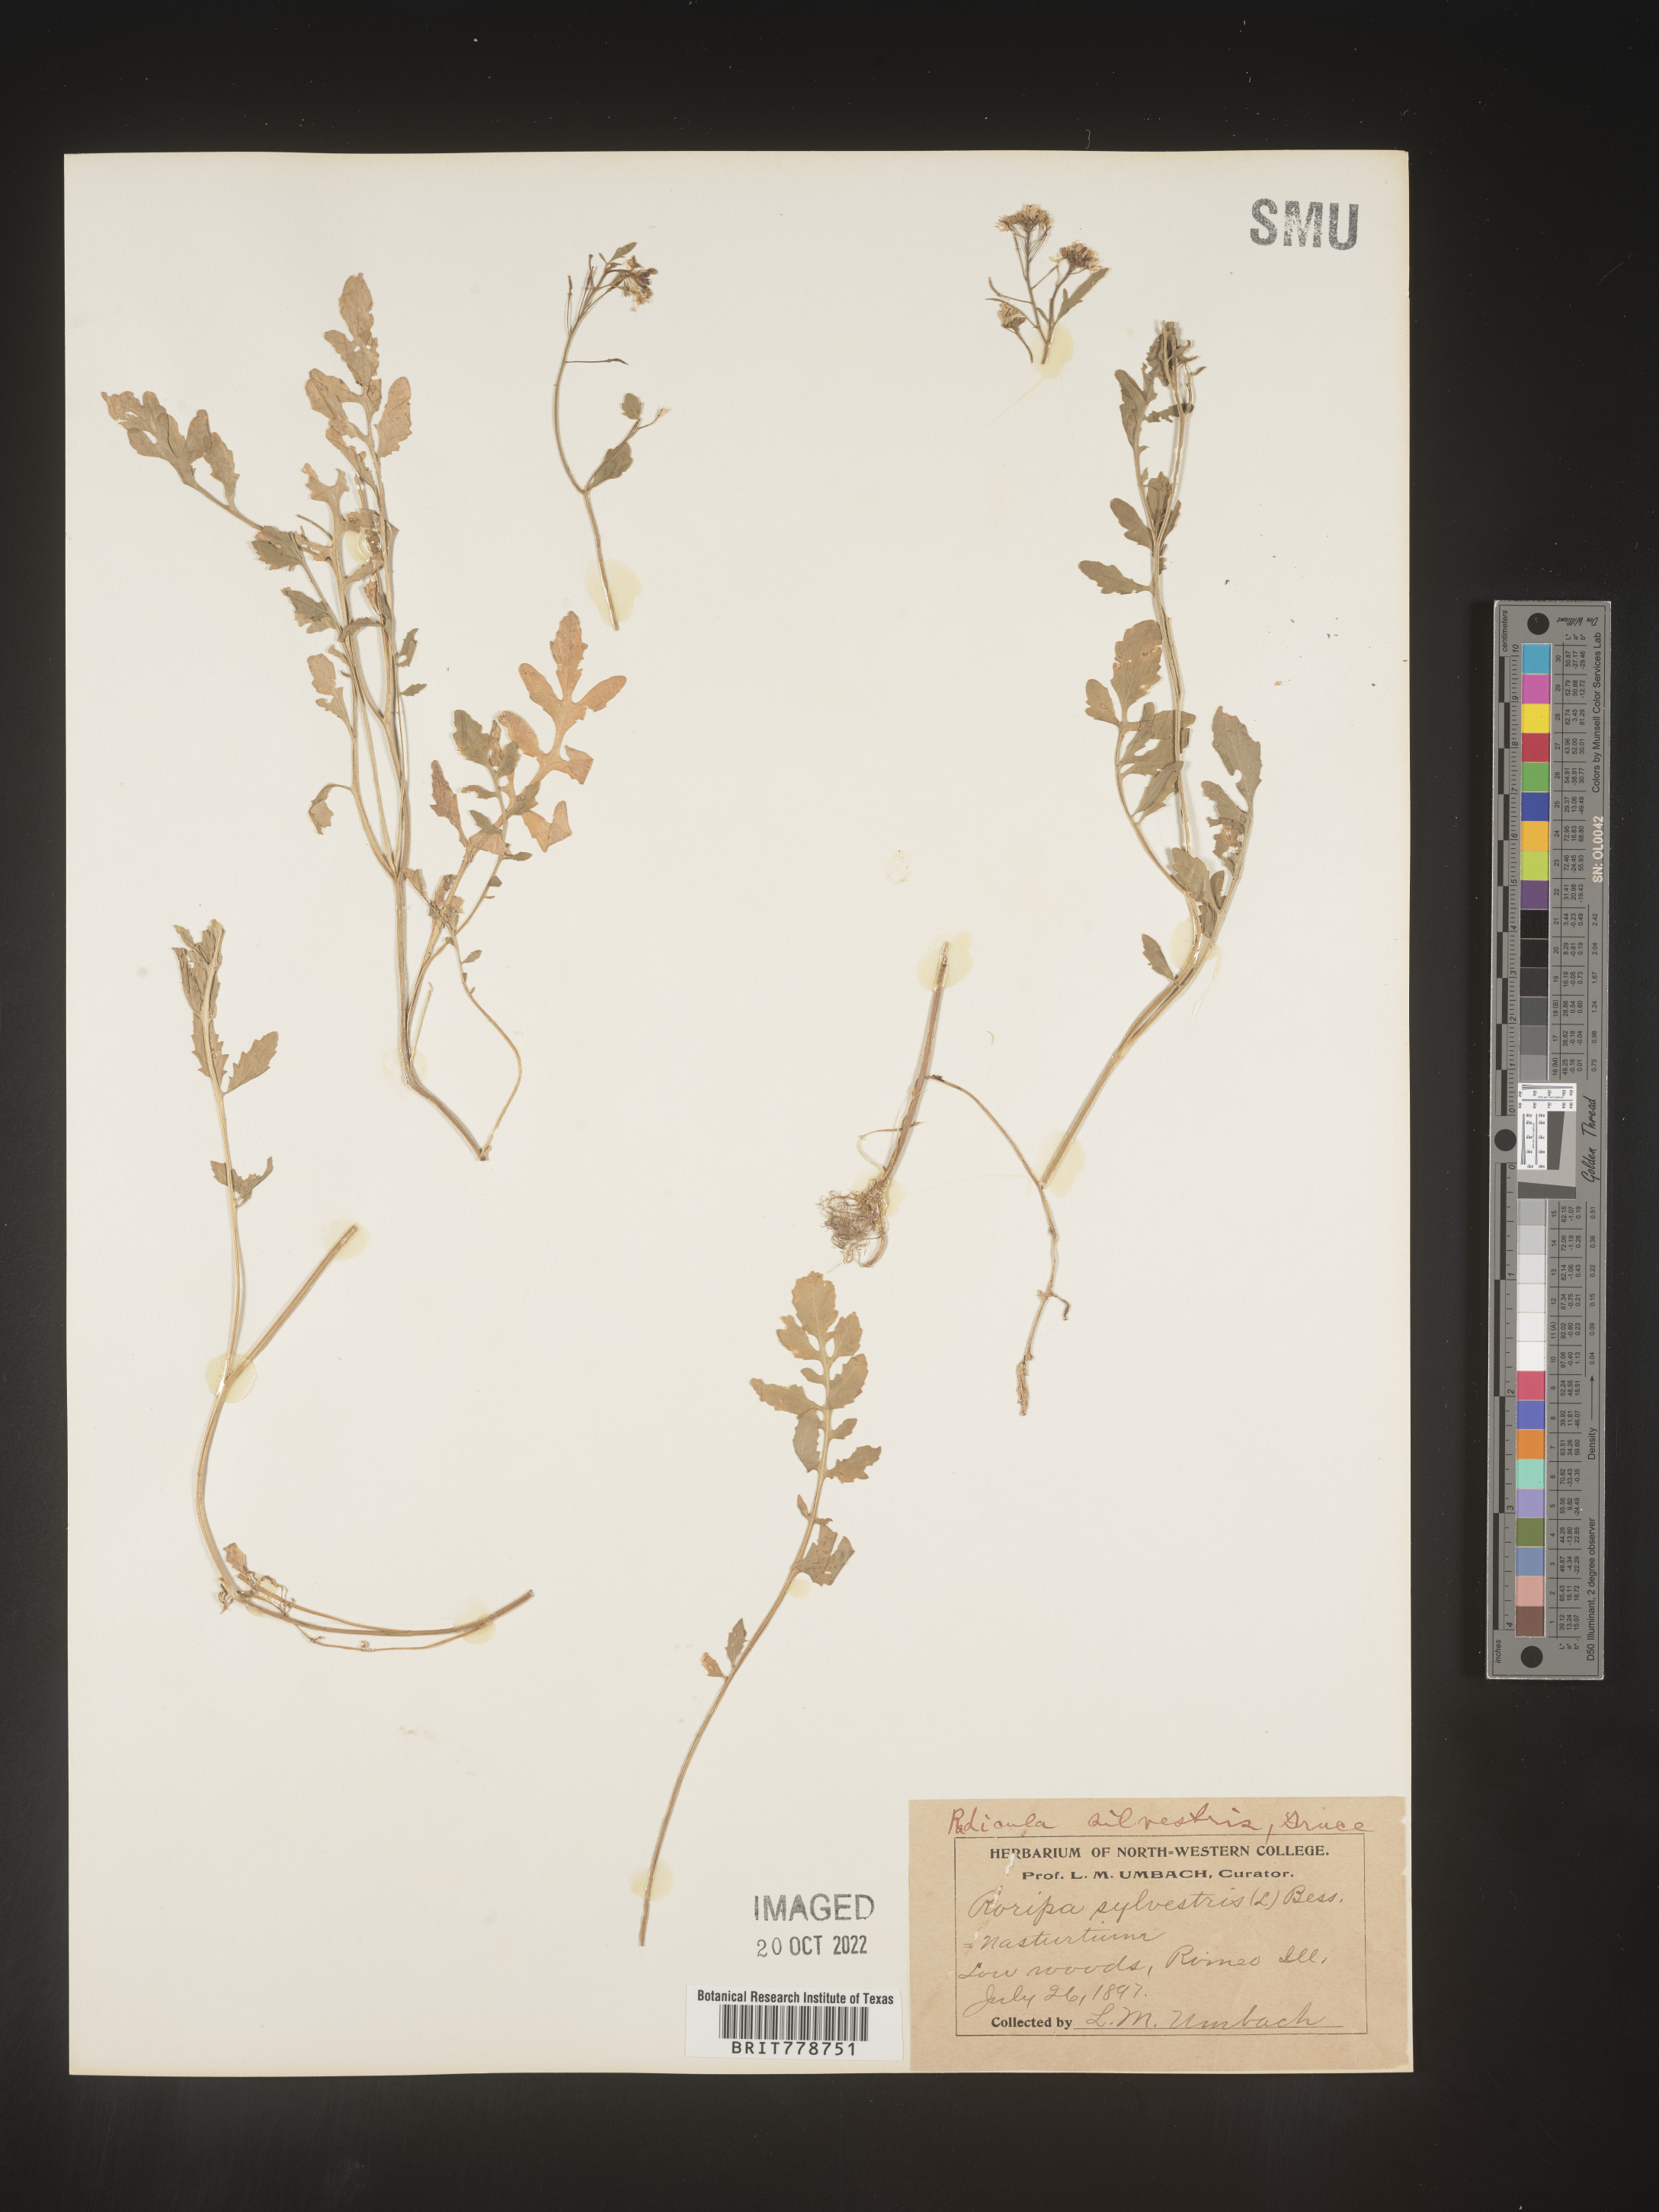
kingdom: Plantae
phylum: Tracheophyta
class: Magnoliopsida
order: Brassicales
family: Brassicaceae
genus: Rorippa
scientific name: Rorippa sylvestris
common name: Creeping yellowcress
